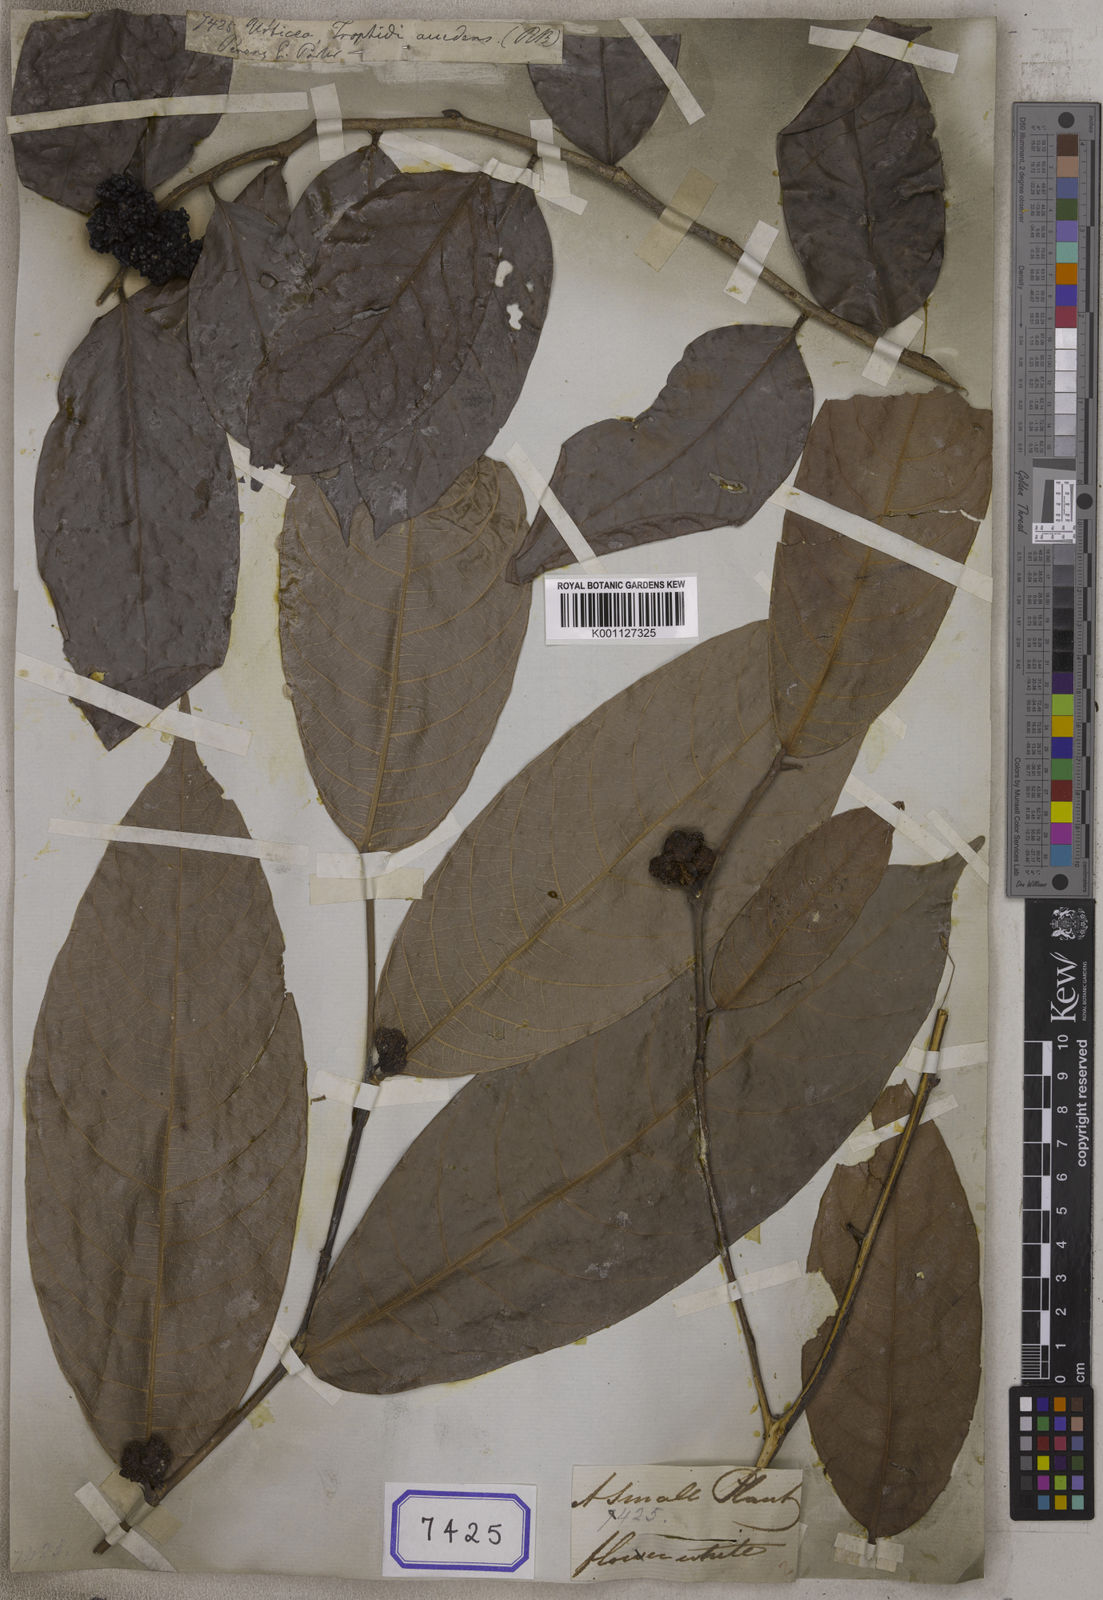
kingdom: Plantae
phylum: Tracheophyta
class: Magnoliopsida
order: Rosales
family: Urticaceae
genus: Urtica
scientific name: Urtica
